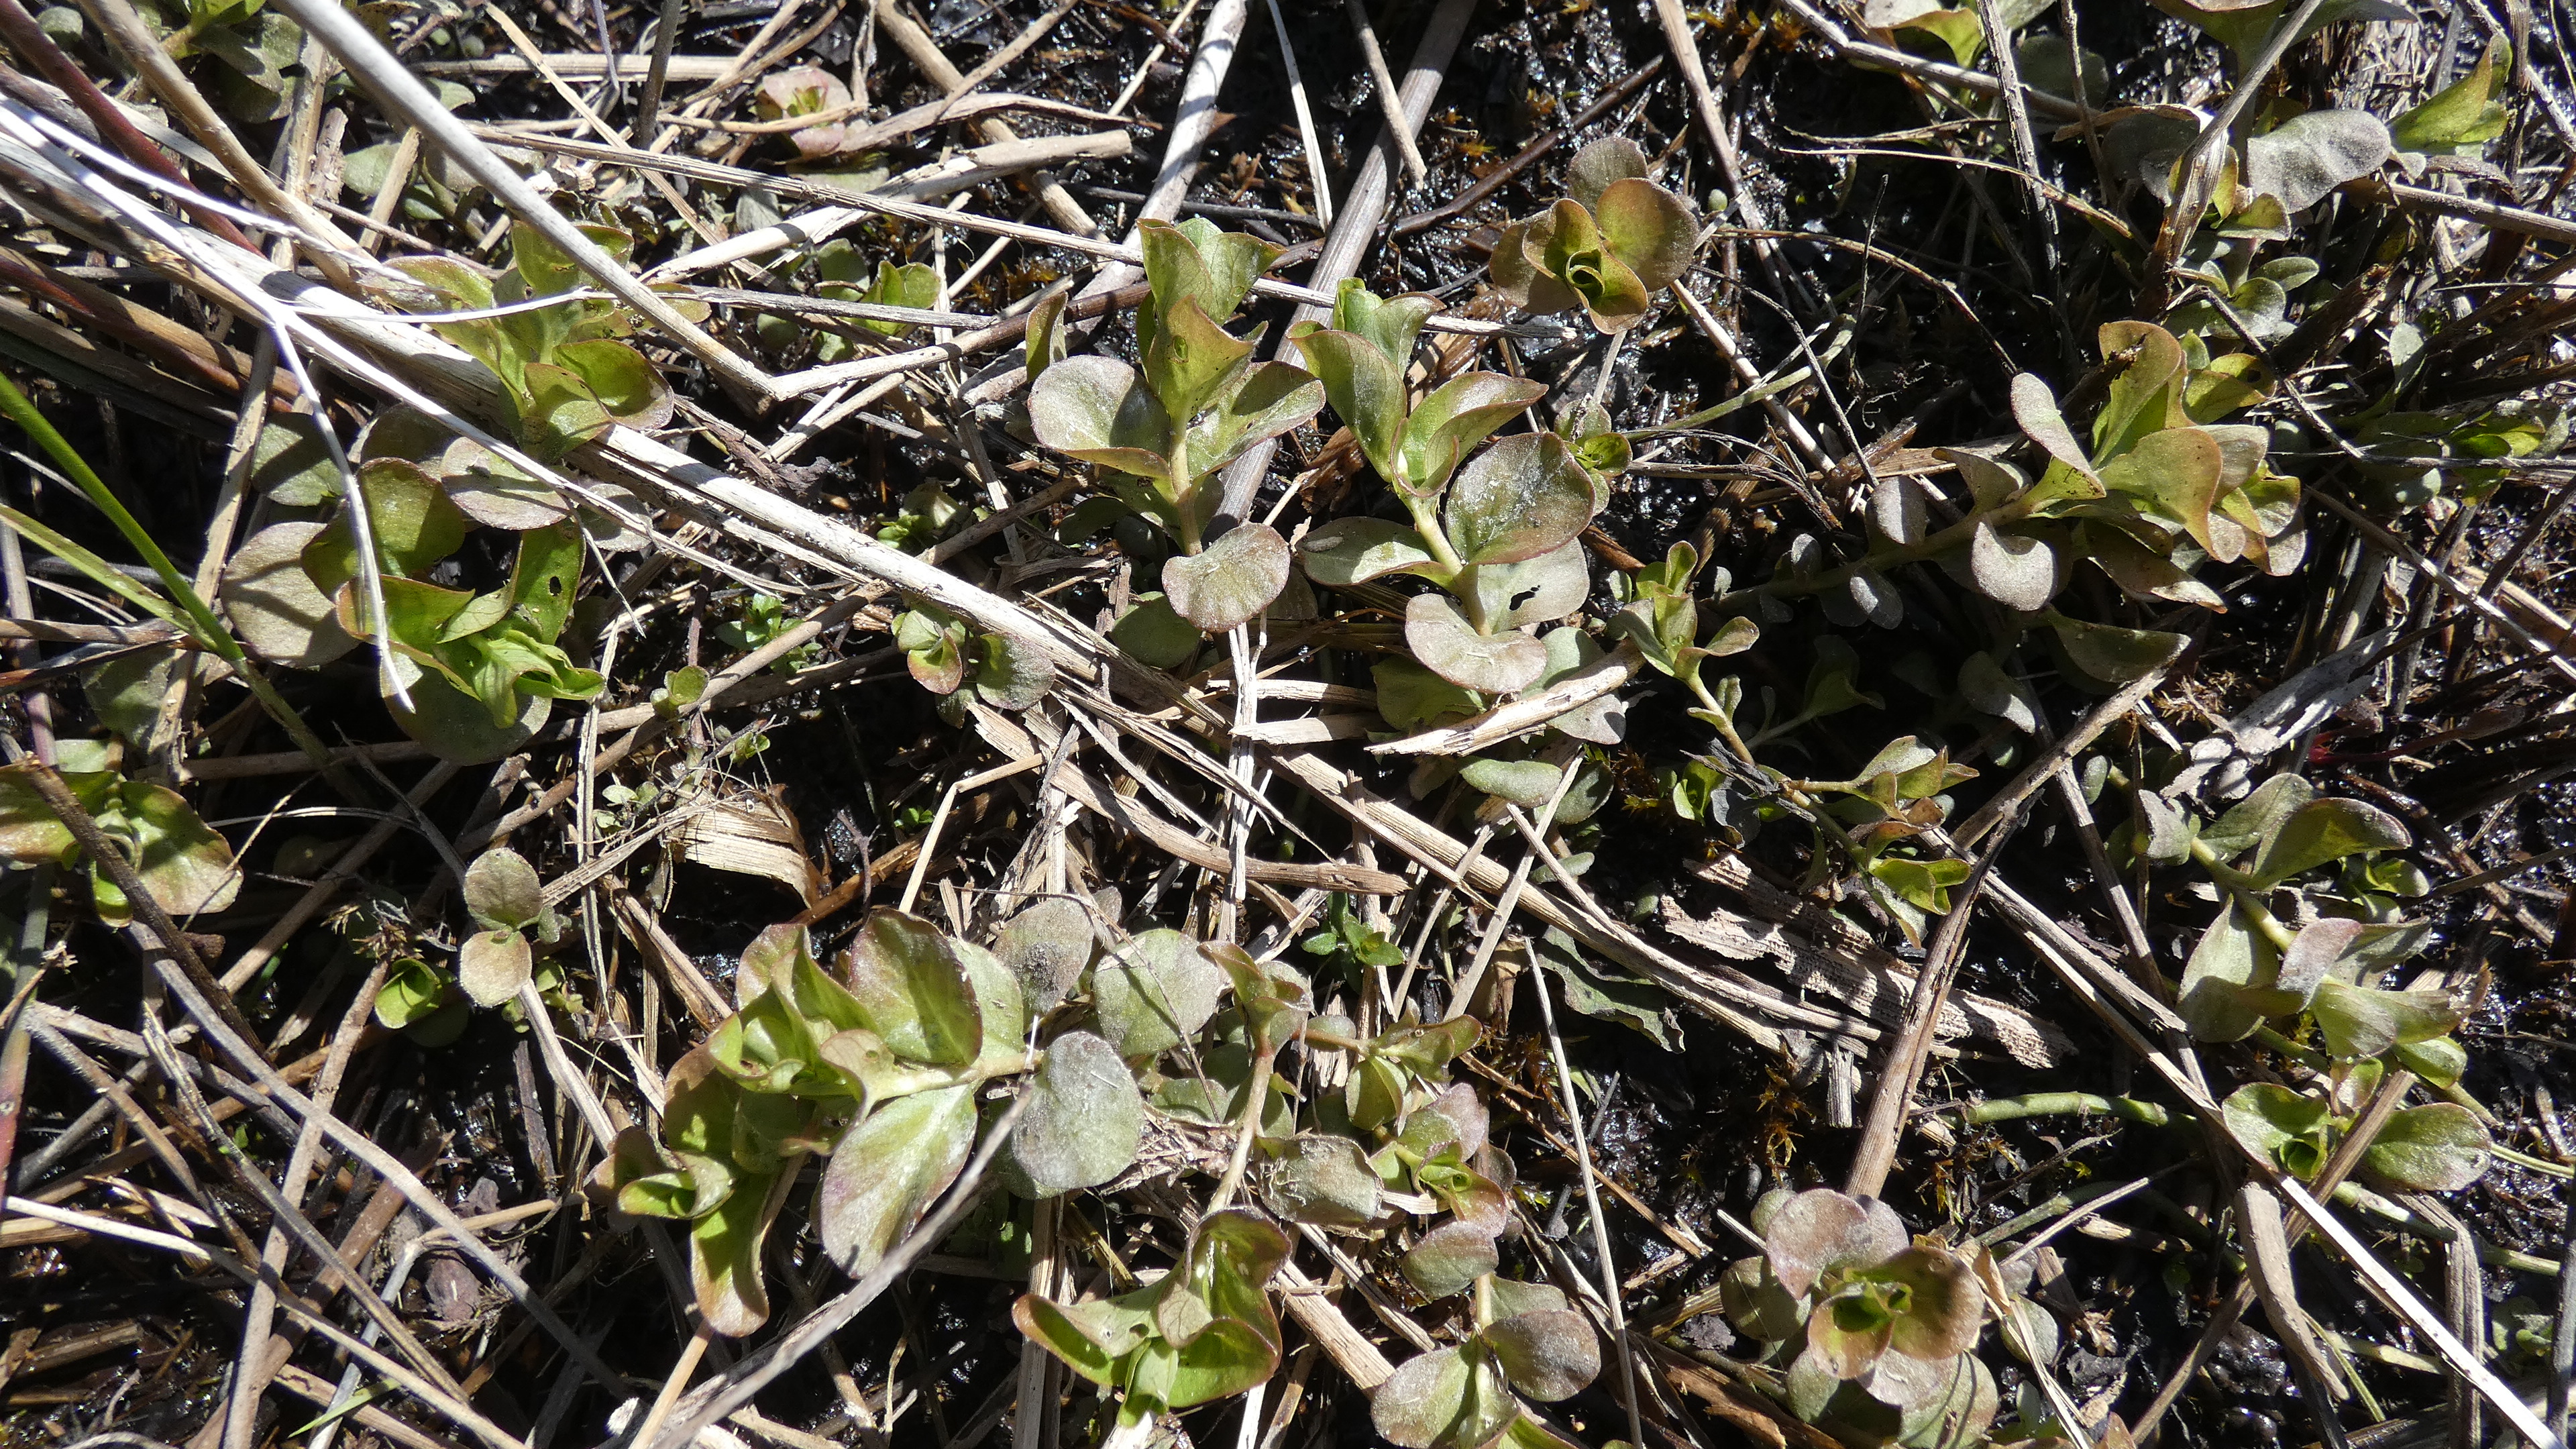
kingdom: Plantae
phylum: Tracheophyta
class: Magnoliopsida
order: Lamiales
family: Plantaginaceae
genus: Veronica
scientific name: Veronica beccabunga
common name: Tykbladet ærenpris
